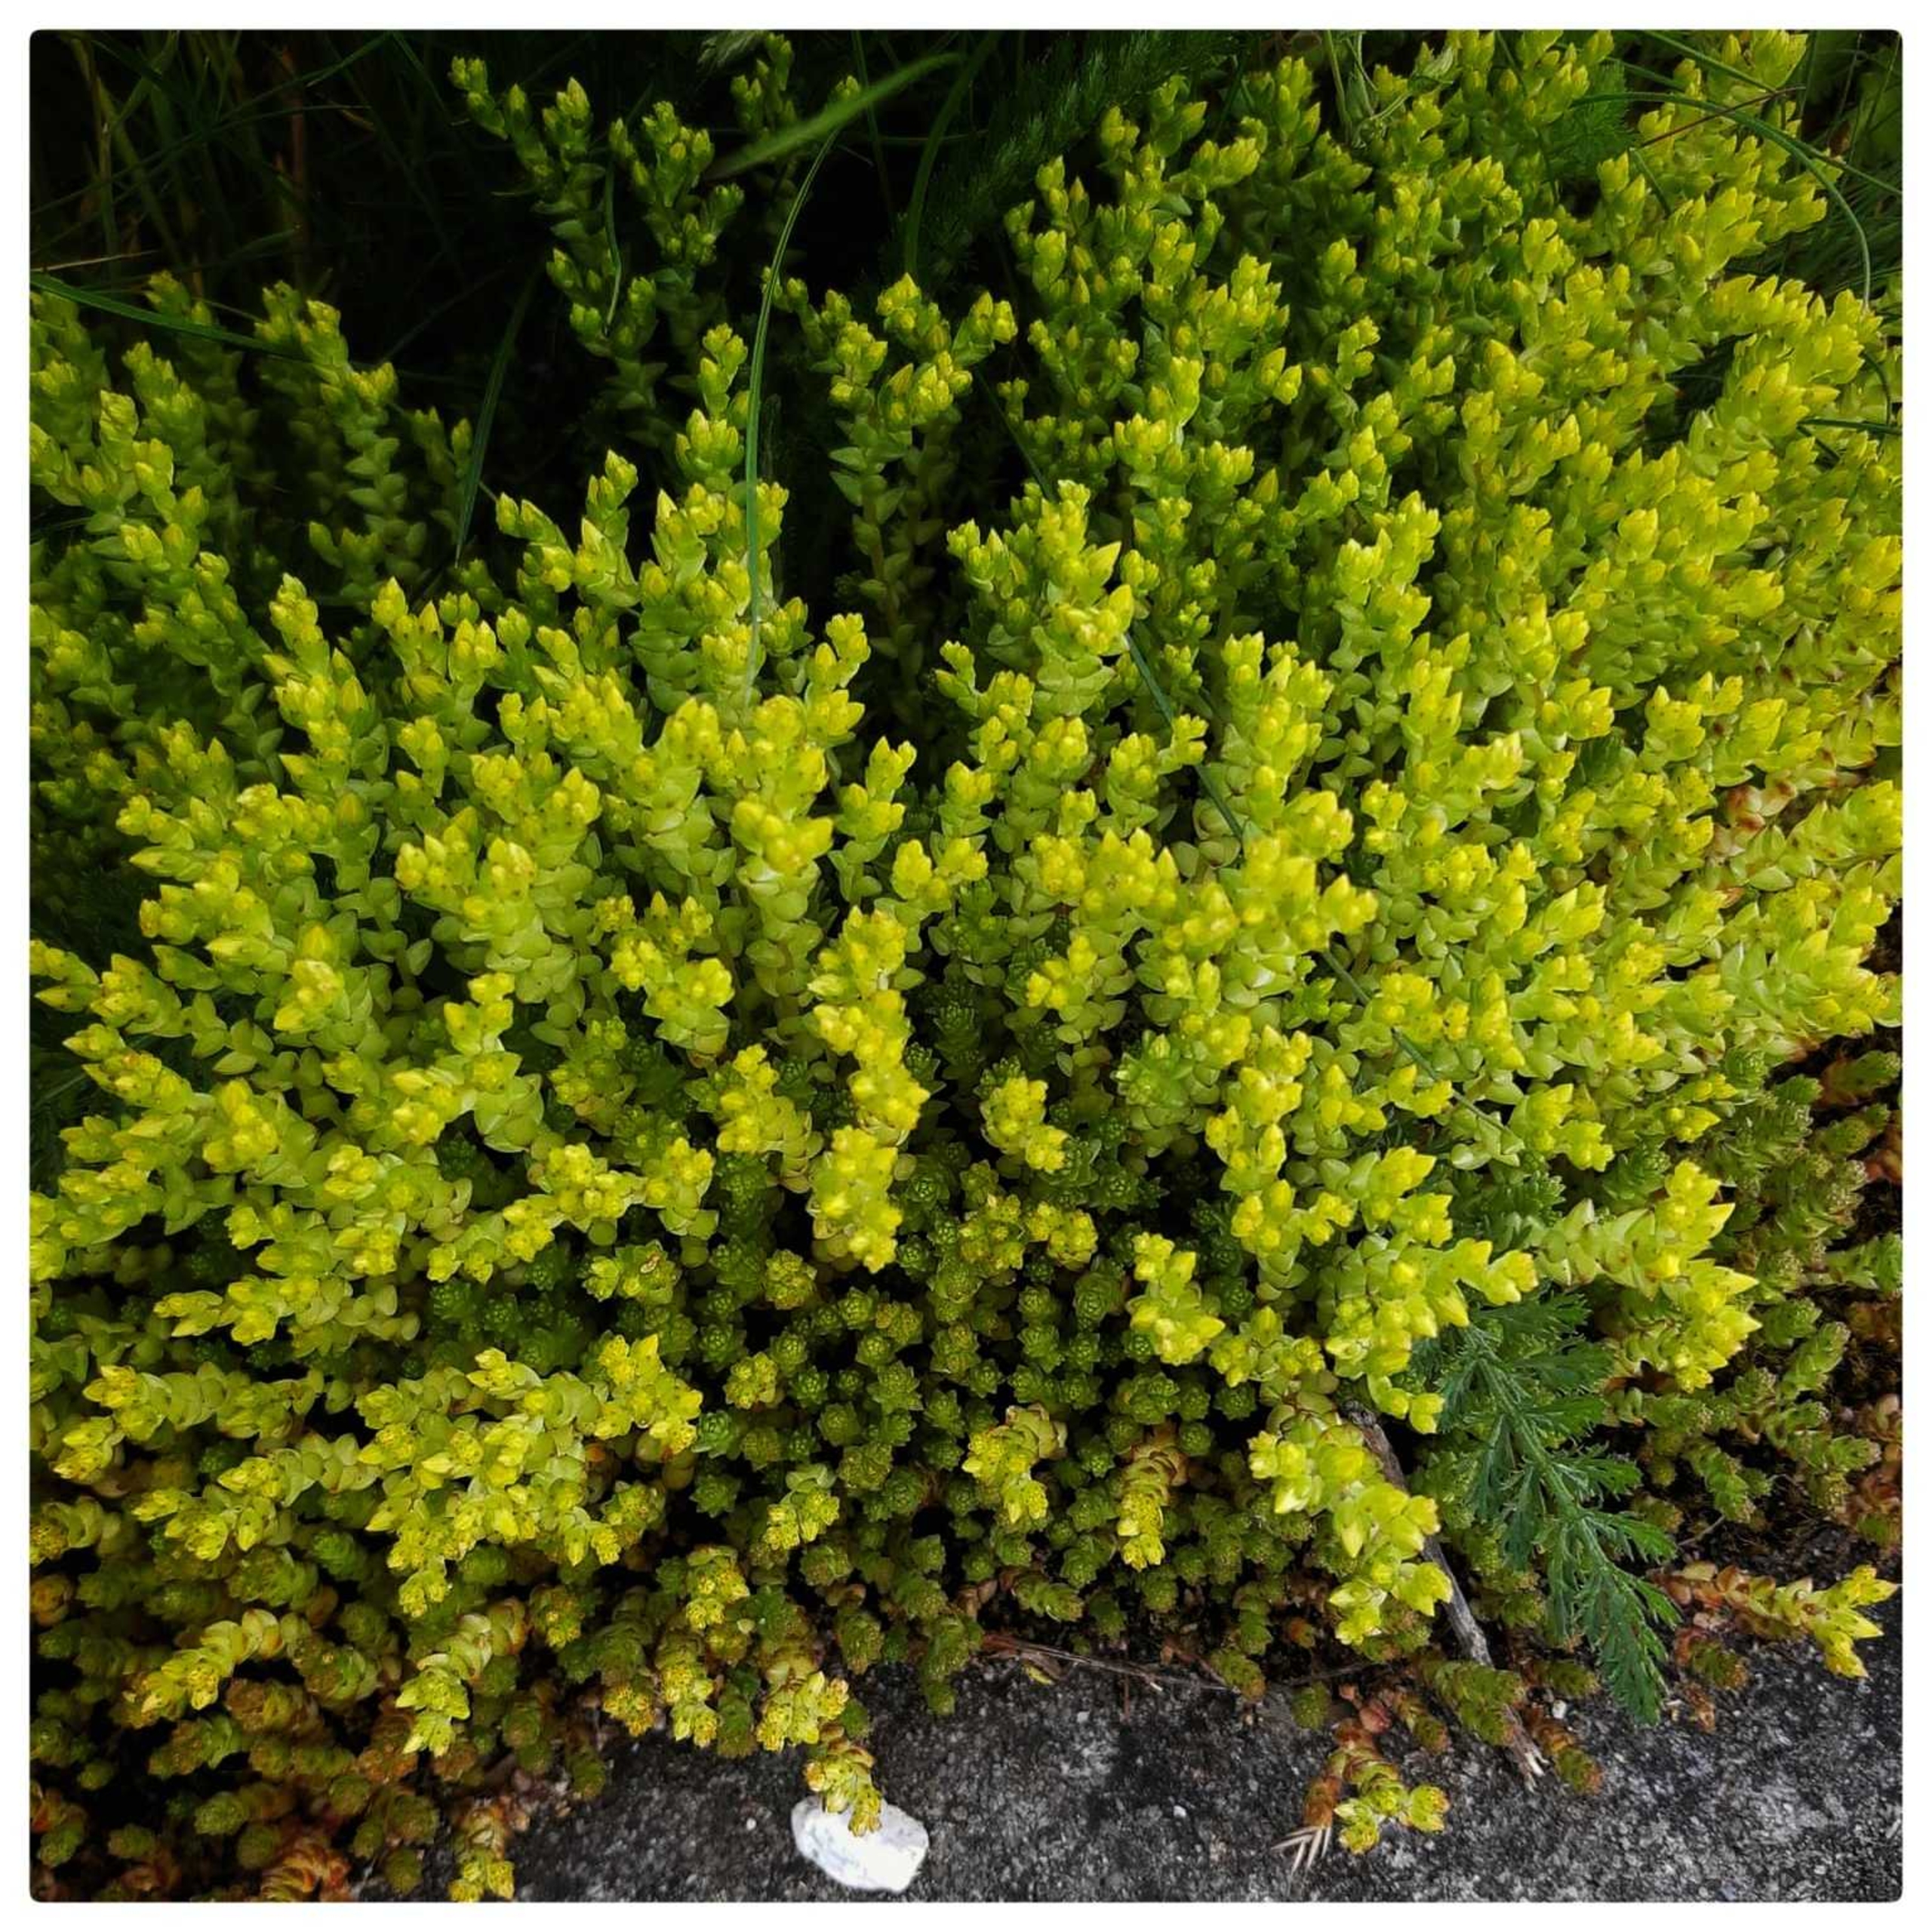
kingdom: Plantae
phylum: Tracheophyta
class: Magnoliopsida
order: Saxifragales
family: Crassulaceae
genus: Sedum
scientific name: Sedum acre
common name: Bidende stenurt
